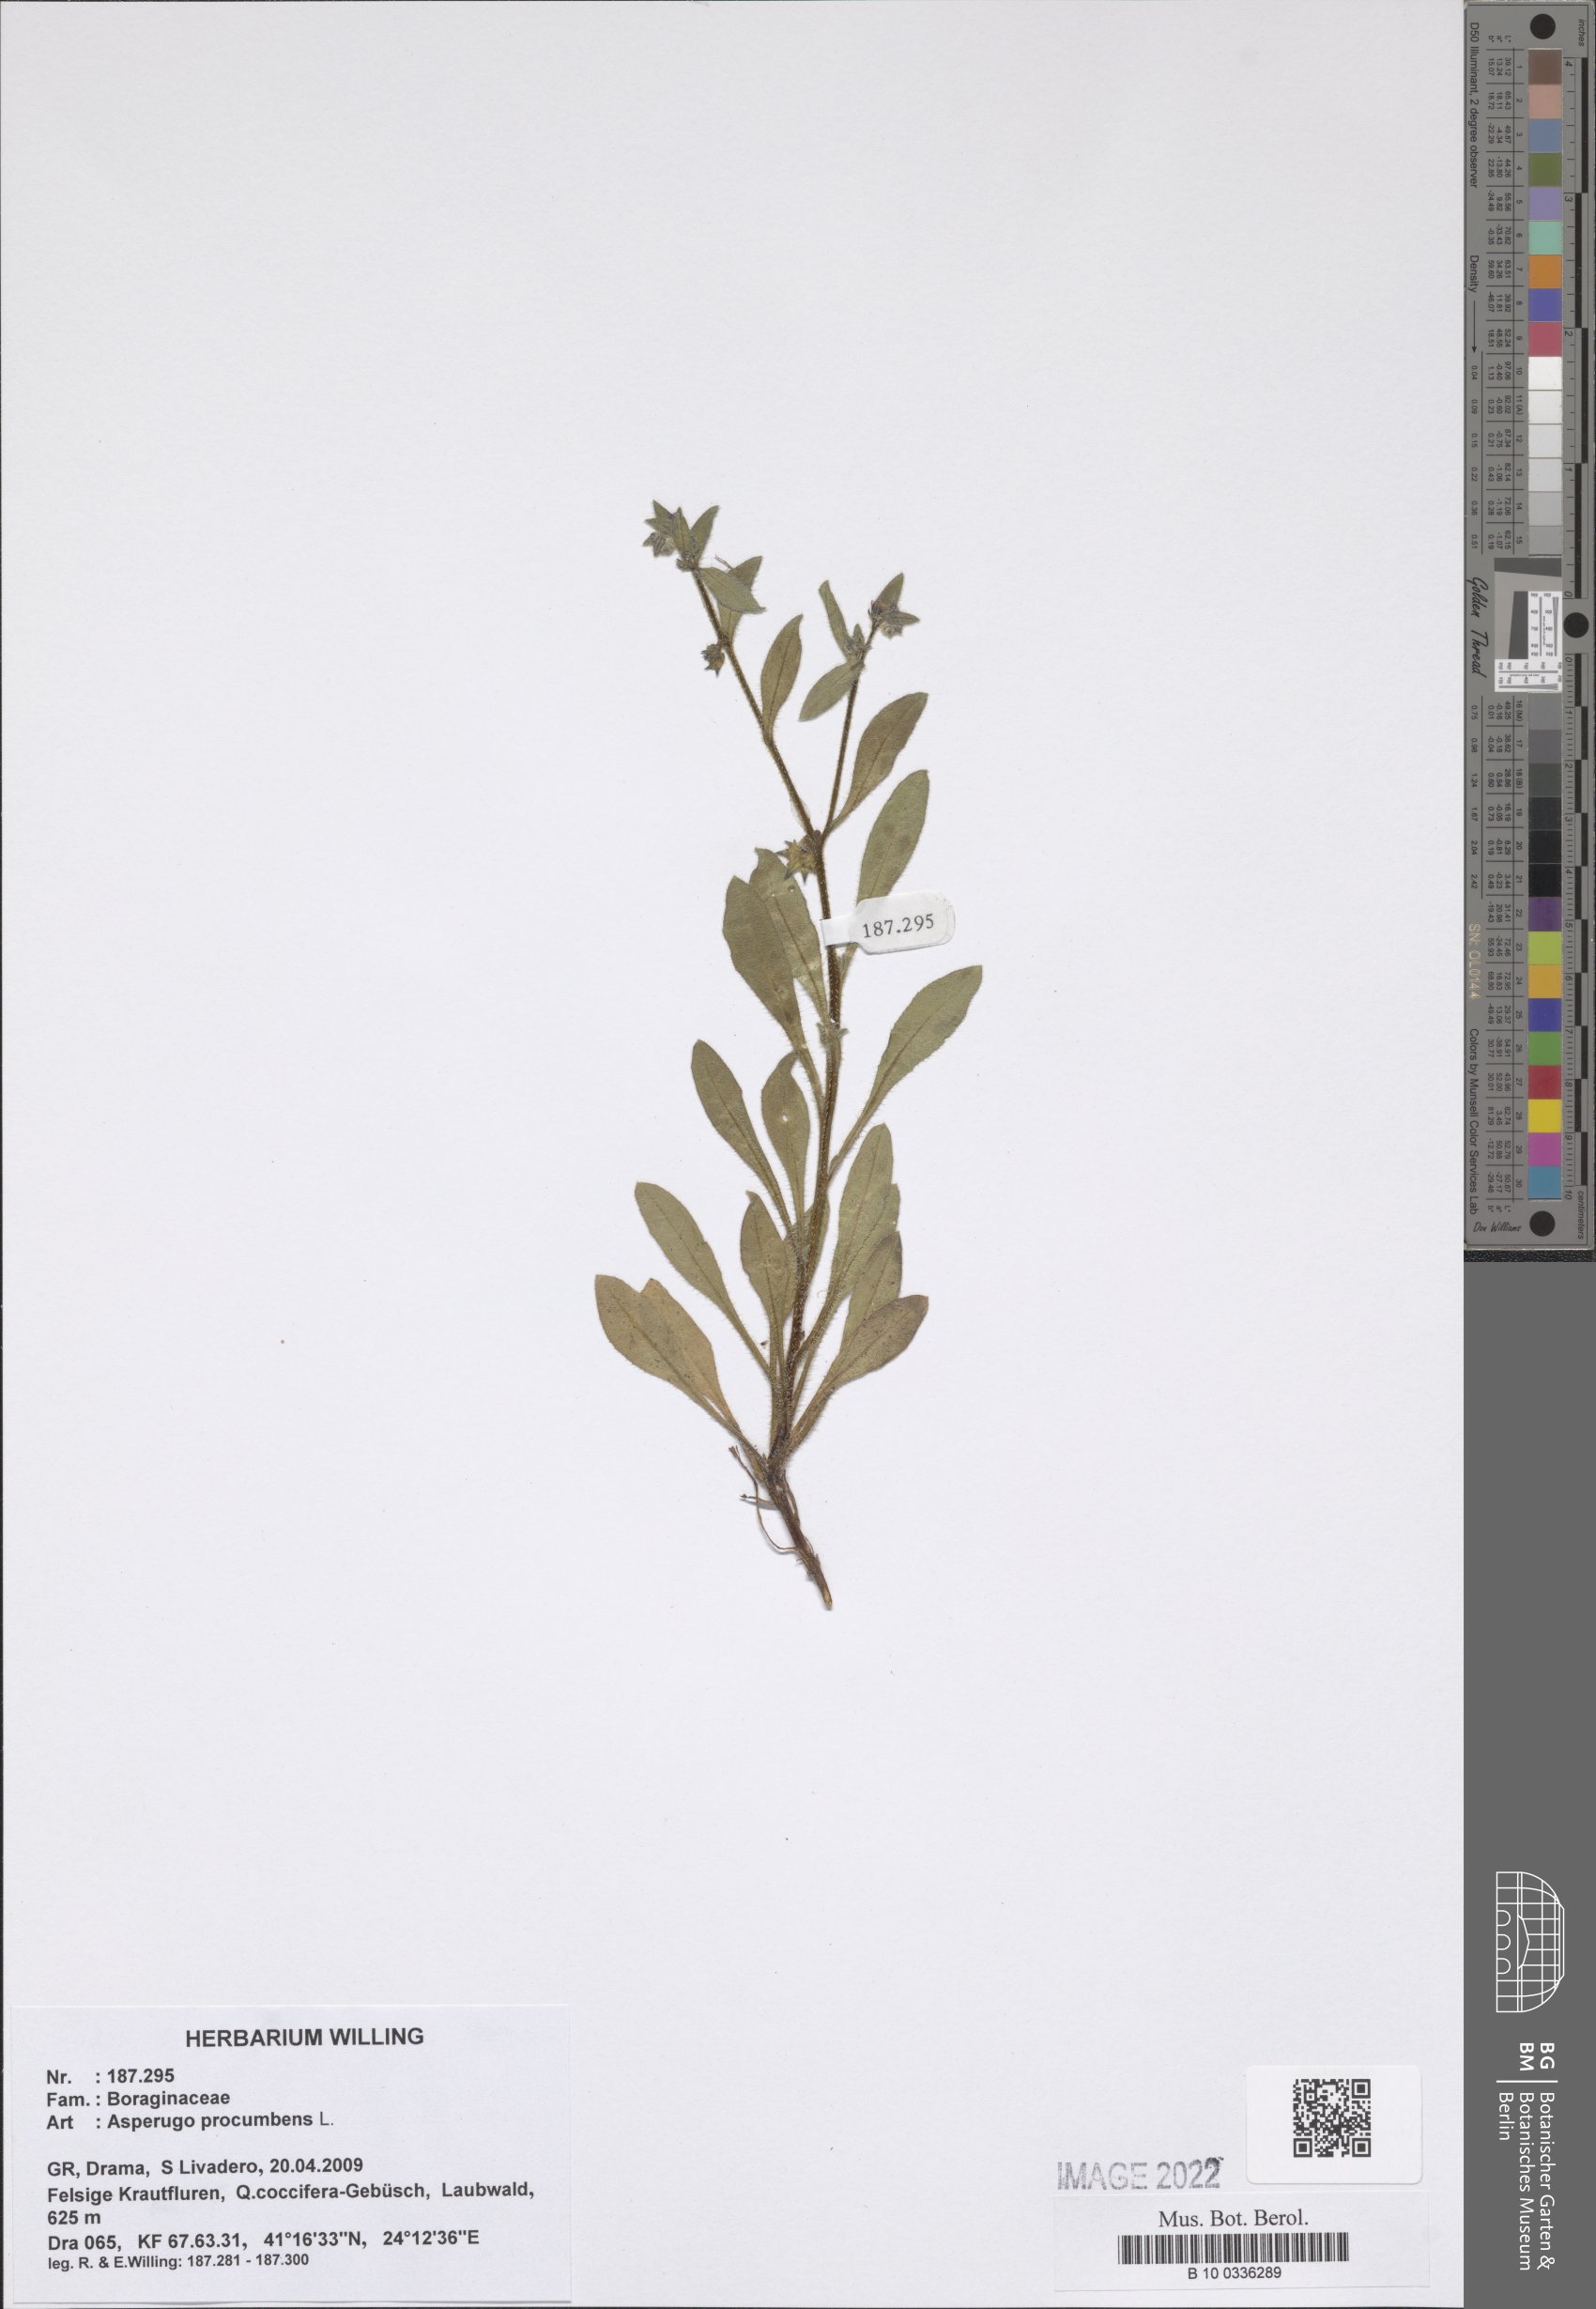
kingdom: Plantae
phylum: Tracheophyta
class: Magnoliopsida
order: Boraginales
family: Boraginaceae
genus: Asperugo
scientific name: Asperugo procumbens
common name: Madwort
